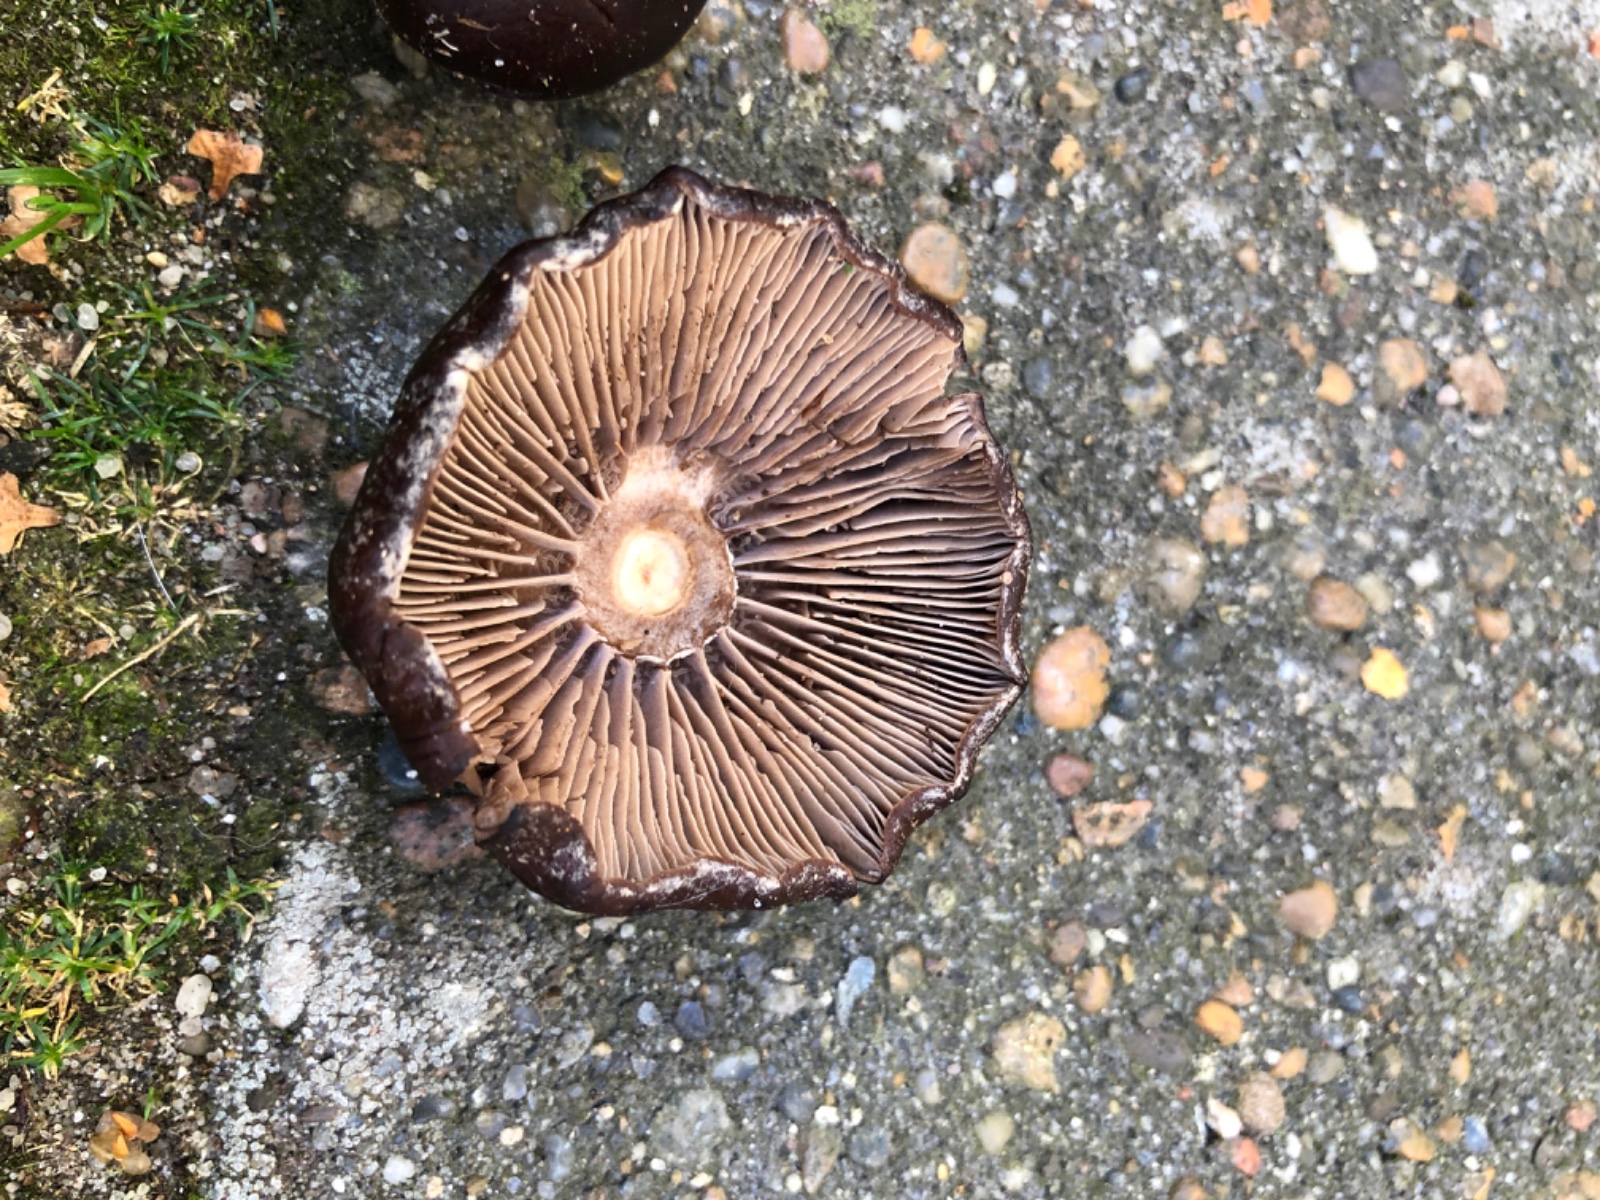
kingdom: Fungi
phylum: Basidiomycota
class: Agaricomycetes
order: Agaricales
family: Tubariaceae
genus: Cyclocybe
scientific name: Cyclocybe erebia
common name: mørk agerhat
